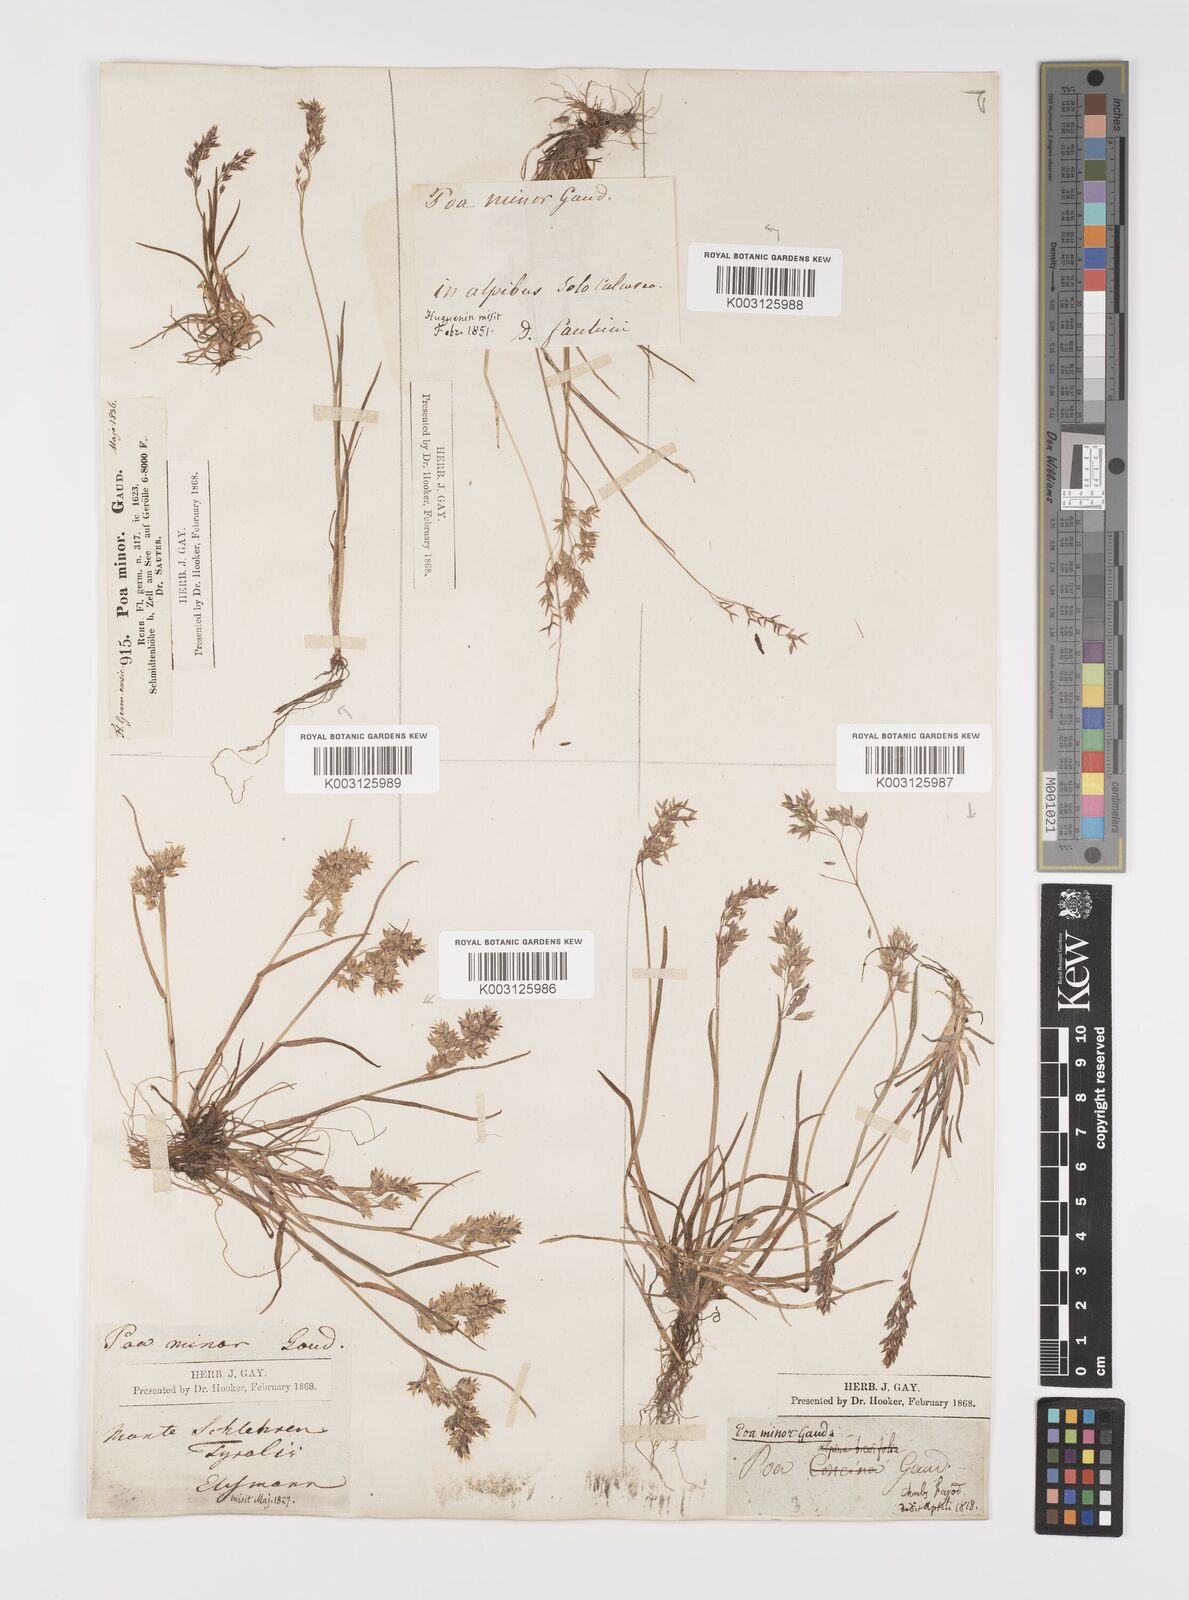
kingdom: Plantae
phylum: Tracheophyta
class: Liliopsida
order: Poales
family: Poaceae
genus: Poa
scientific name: Poa minor
